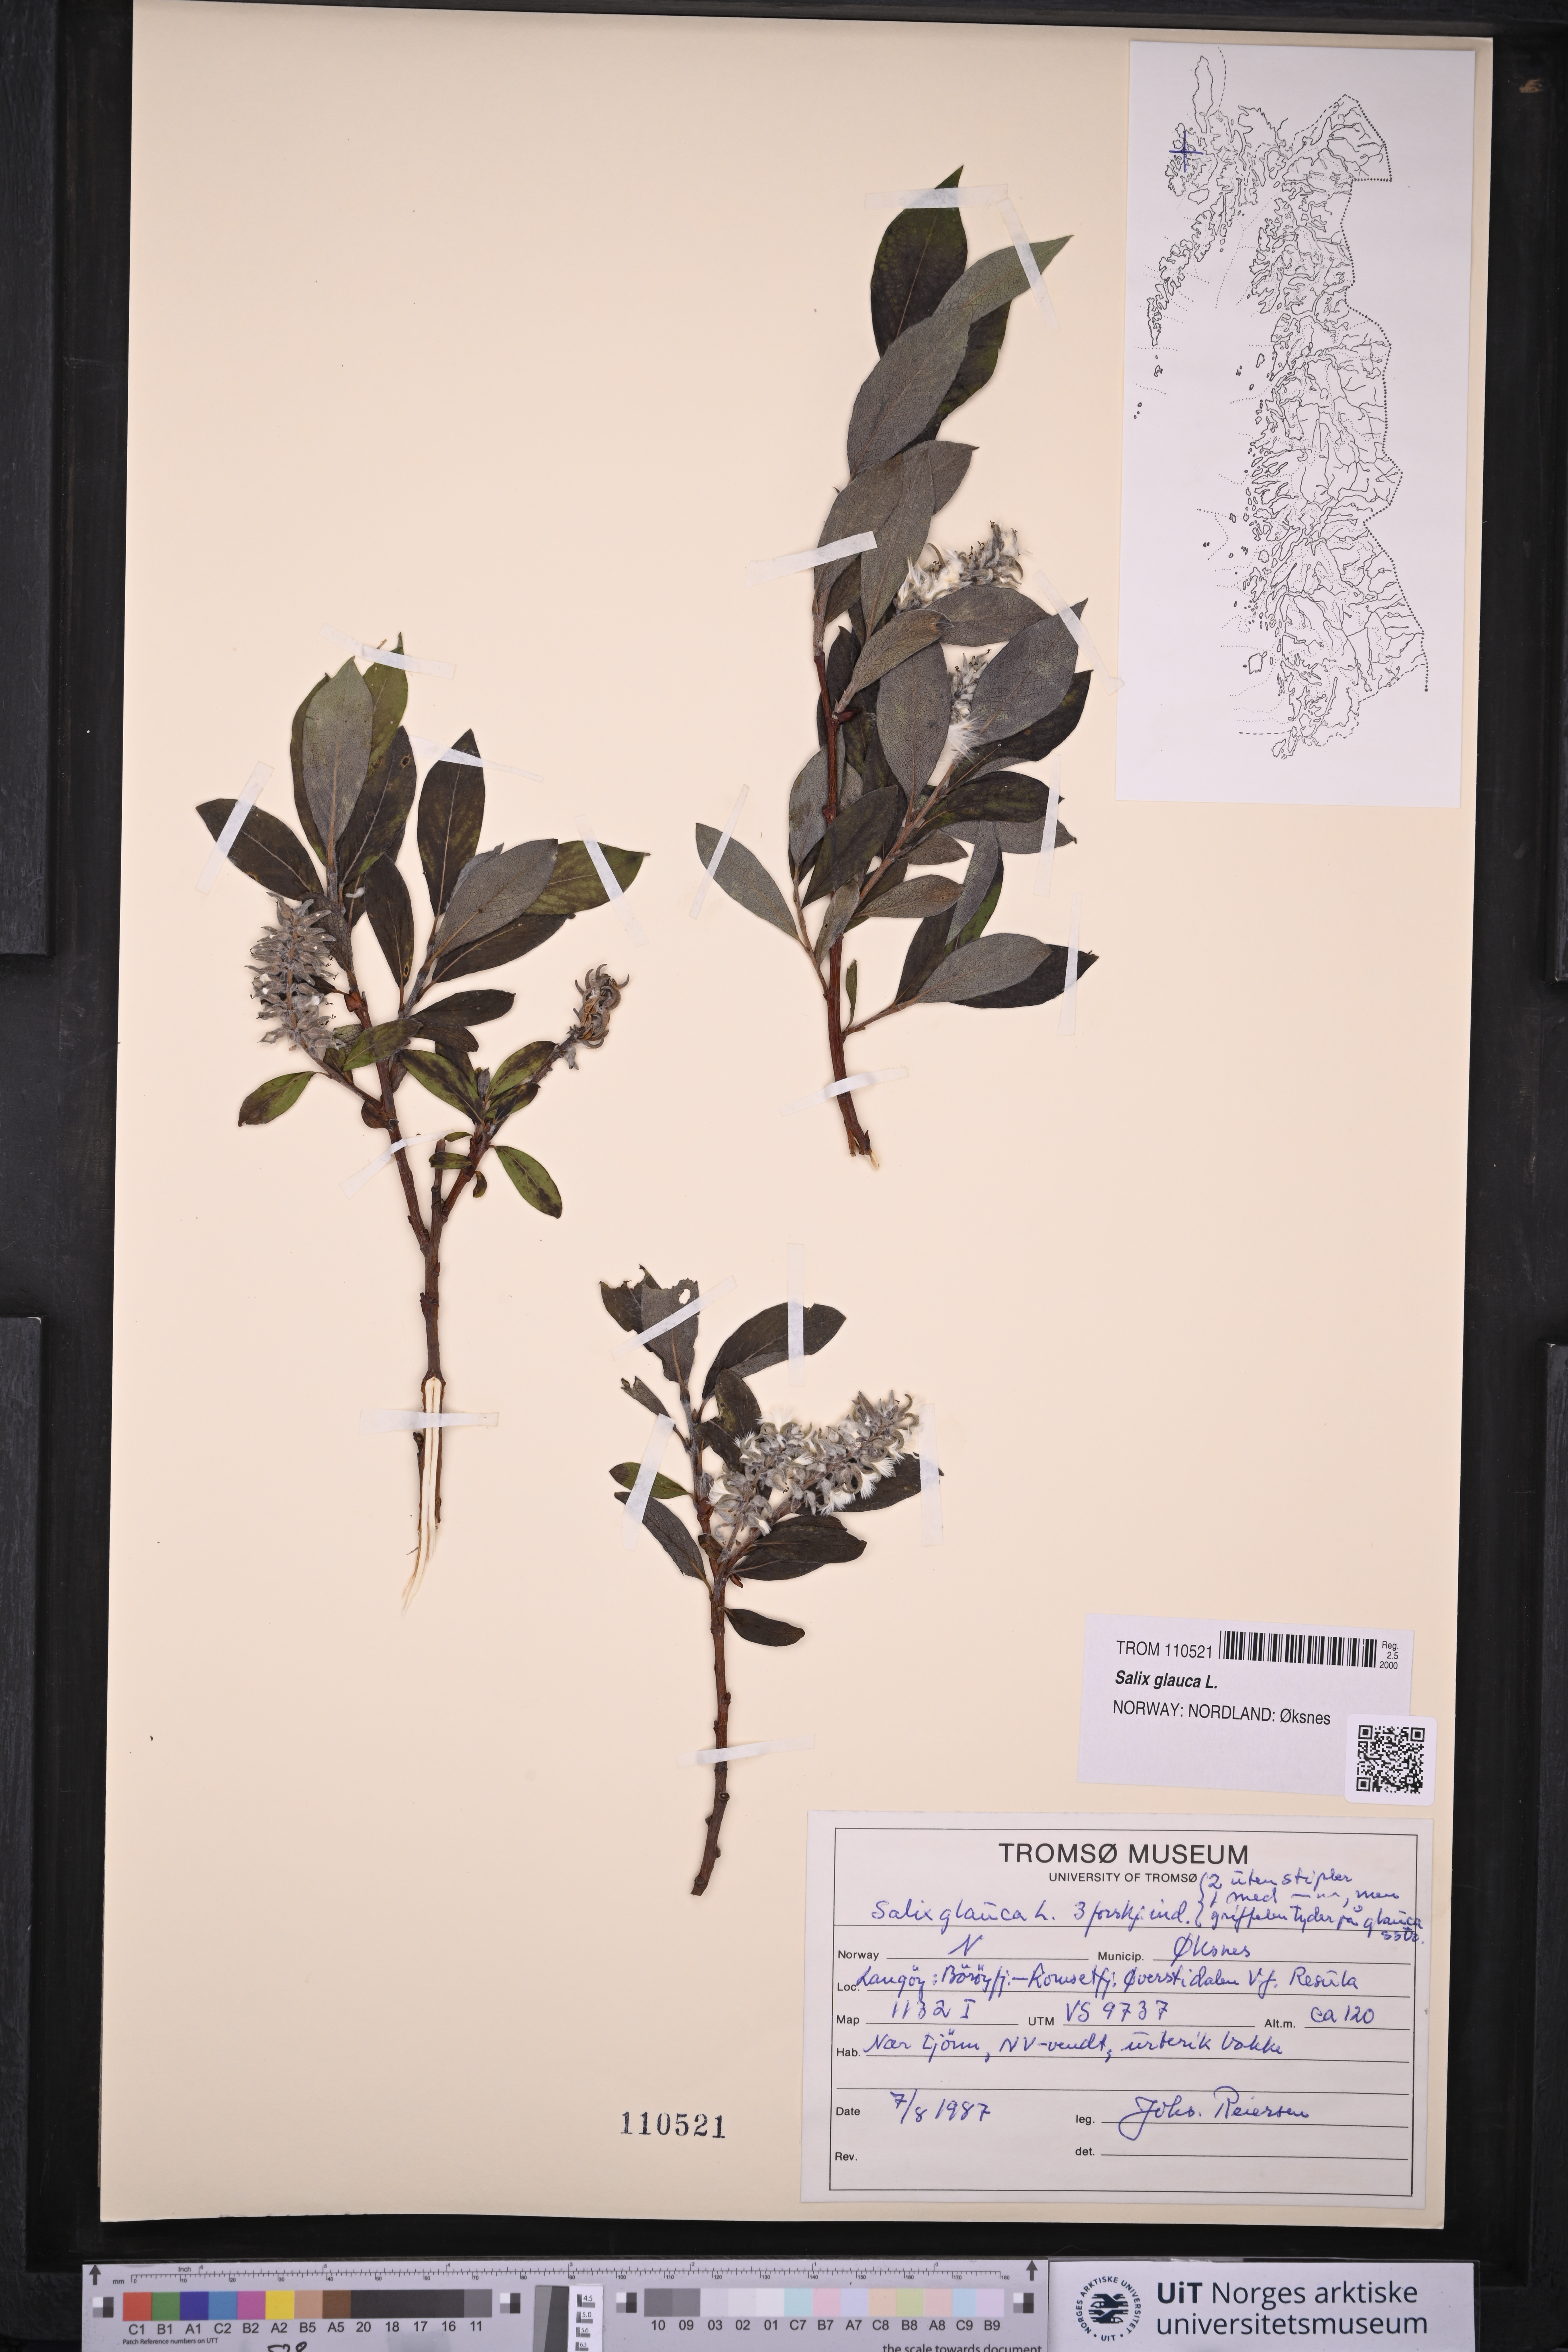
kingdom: Plantae
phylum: Tracheophyta
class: Magnoliopsida
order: Malpighiales
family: Salicaceae
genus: Salix
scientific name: Salix glauca
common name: Glaucous willow
